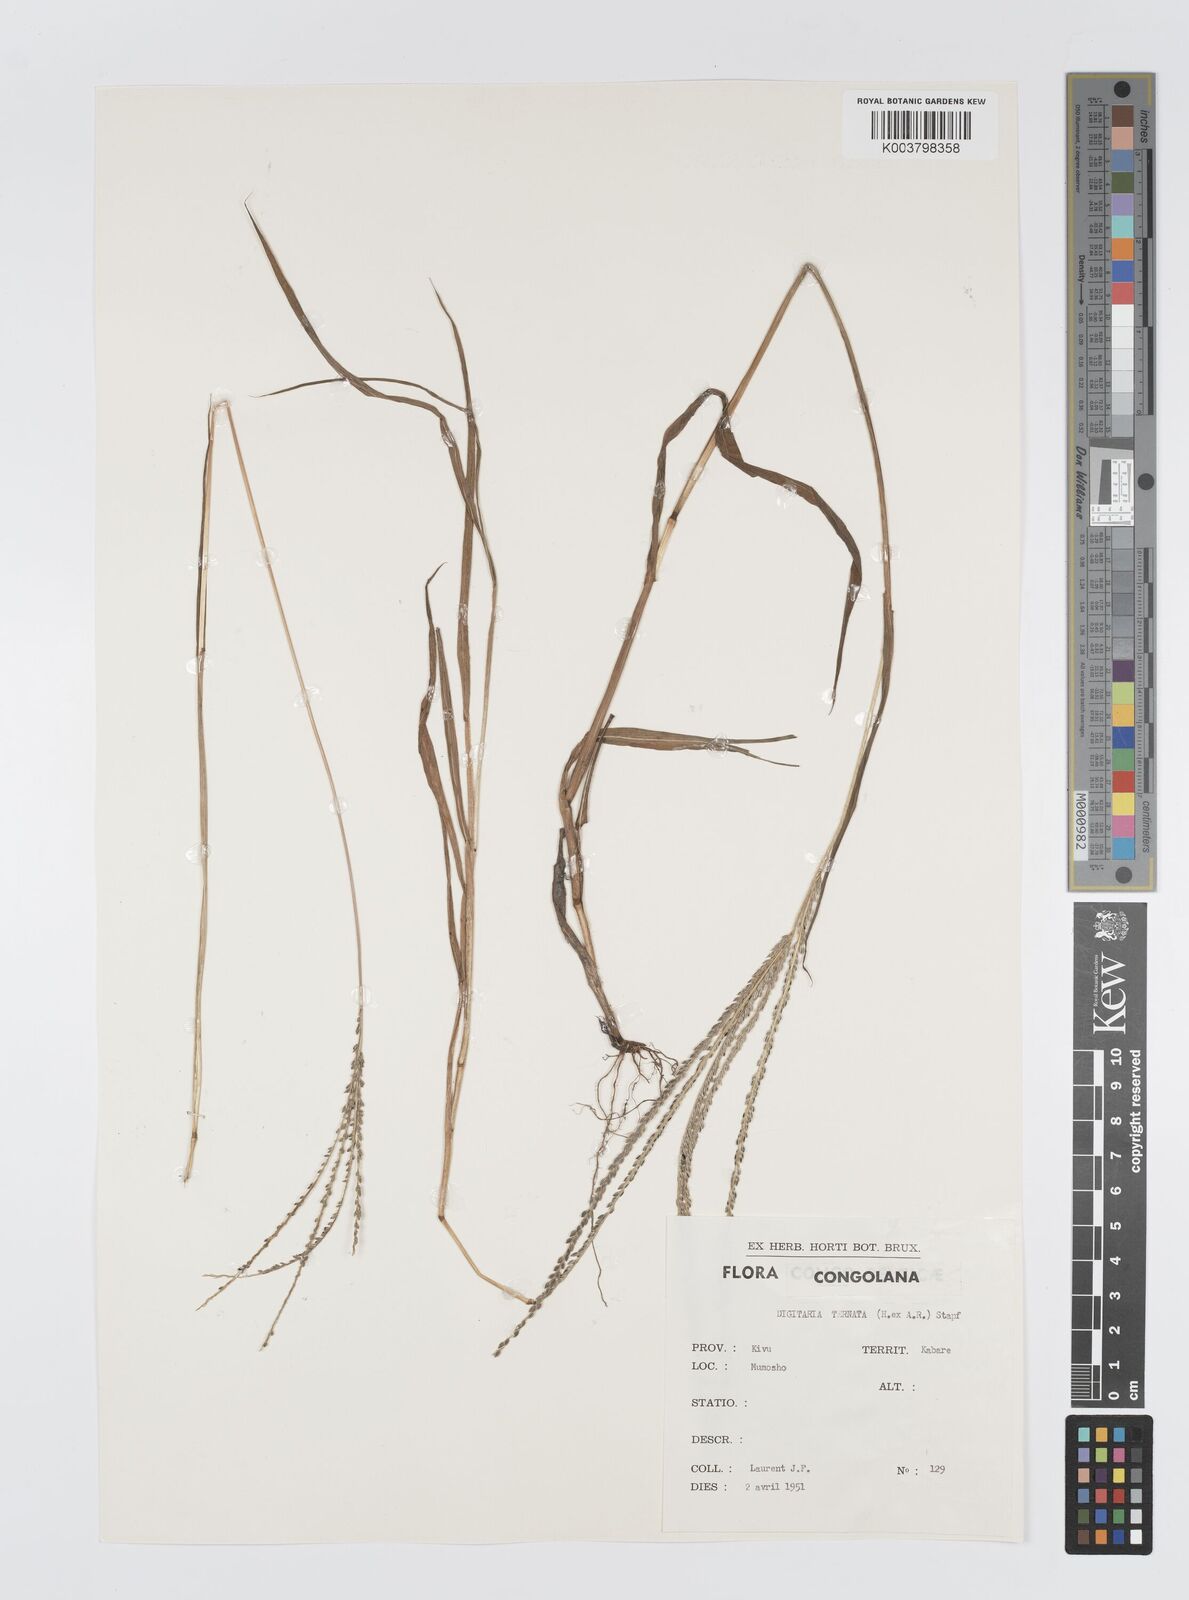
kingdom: Plantae
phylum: Tracheophyta
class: Liliopsida
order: Poales
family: Poaceae
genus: Digitaria
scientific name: Digitaria ternata
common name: Blackseed crabgrass
